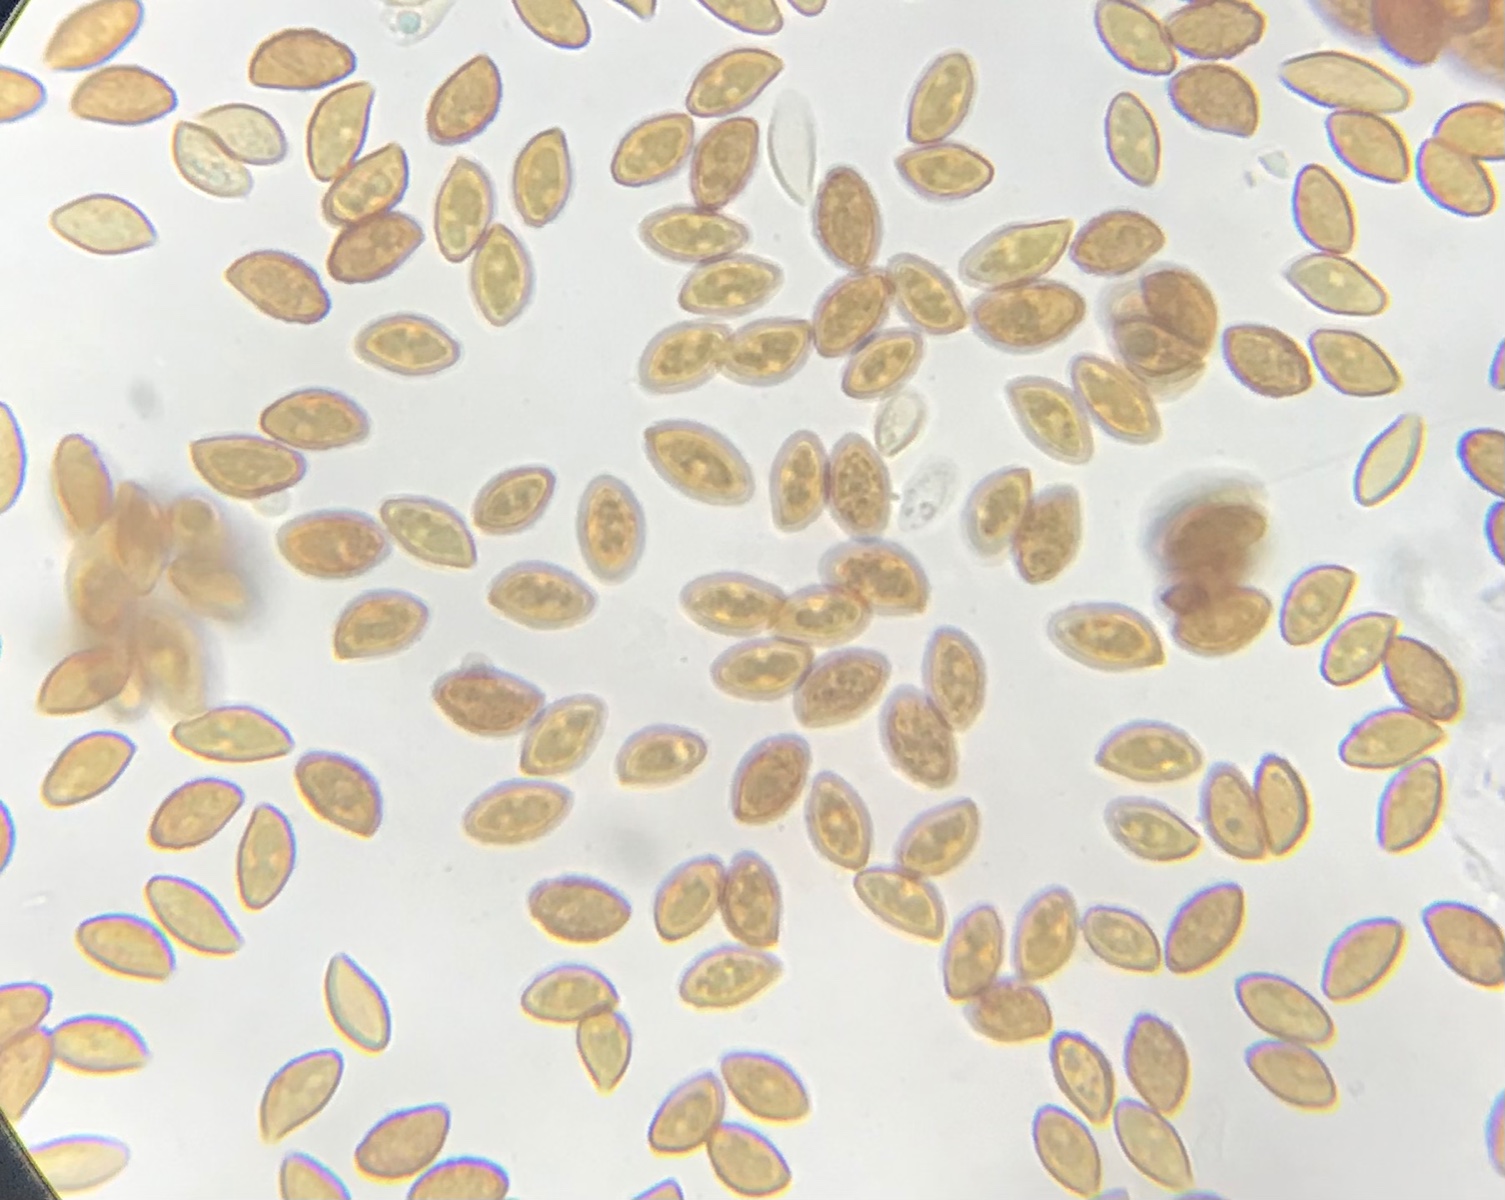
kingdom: Fungi
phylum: Basidiomycota
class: Agaricomycetes
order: Agaricales
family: Cortinariaceae
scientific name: Cortinariaceae
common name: slørhatfamilien
